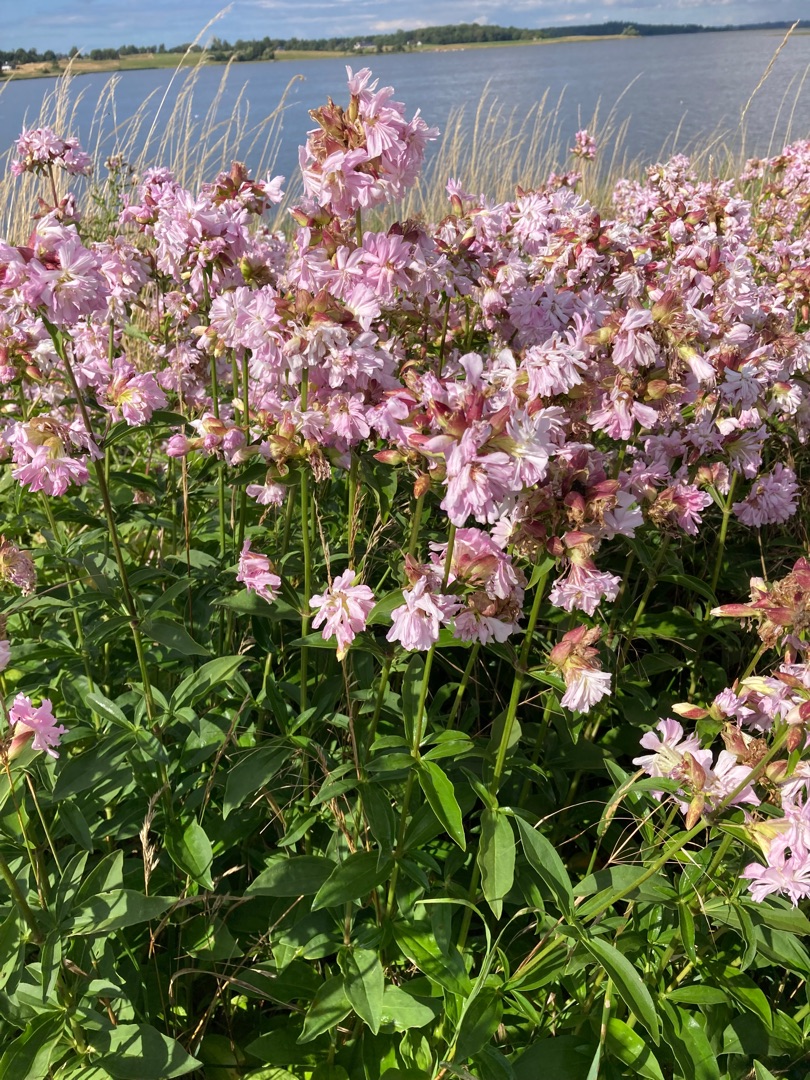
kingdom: Plantae
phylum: Tracheophyta
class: Magnoliopsida
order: Caryophyllales
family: Caryophyllaceae
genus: Saponaria
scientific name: Saponaria officinalis
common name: Sæbeurt
